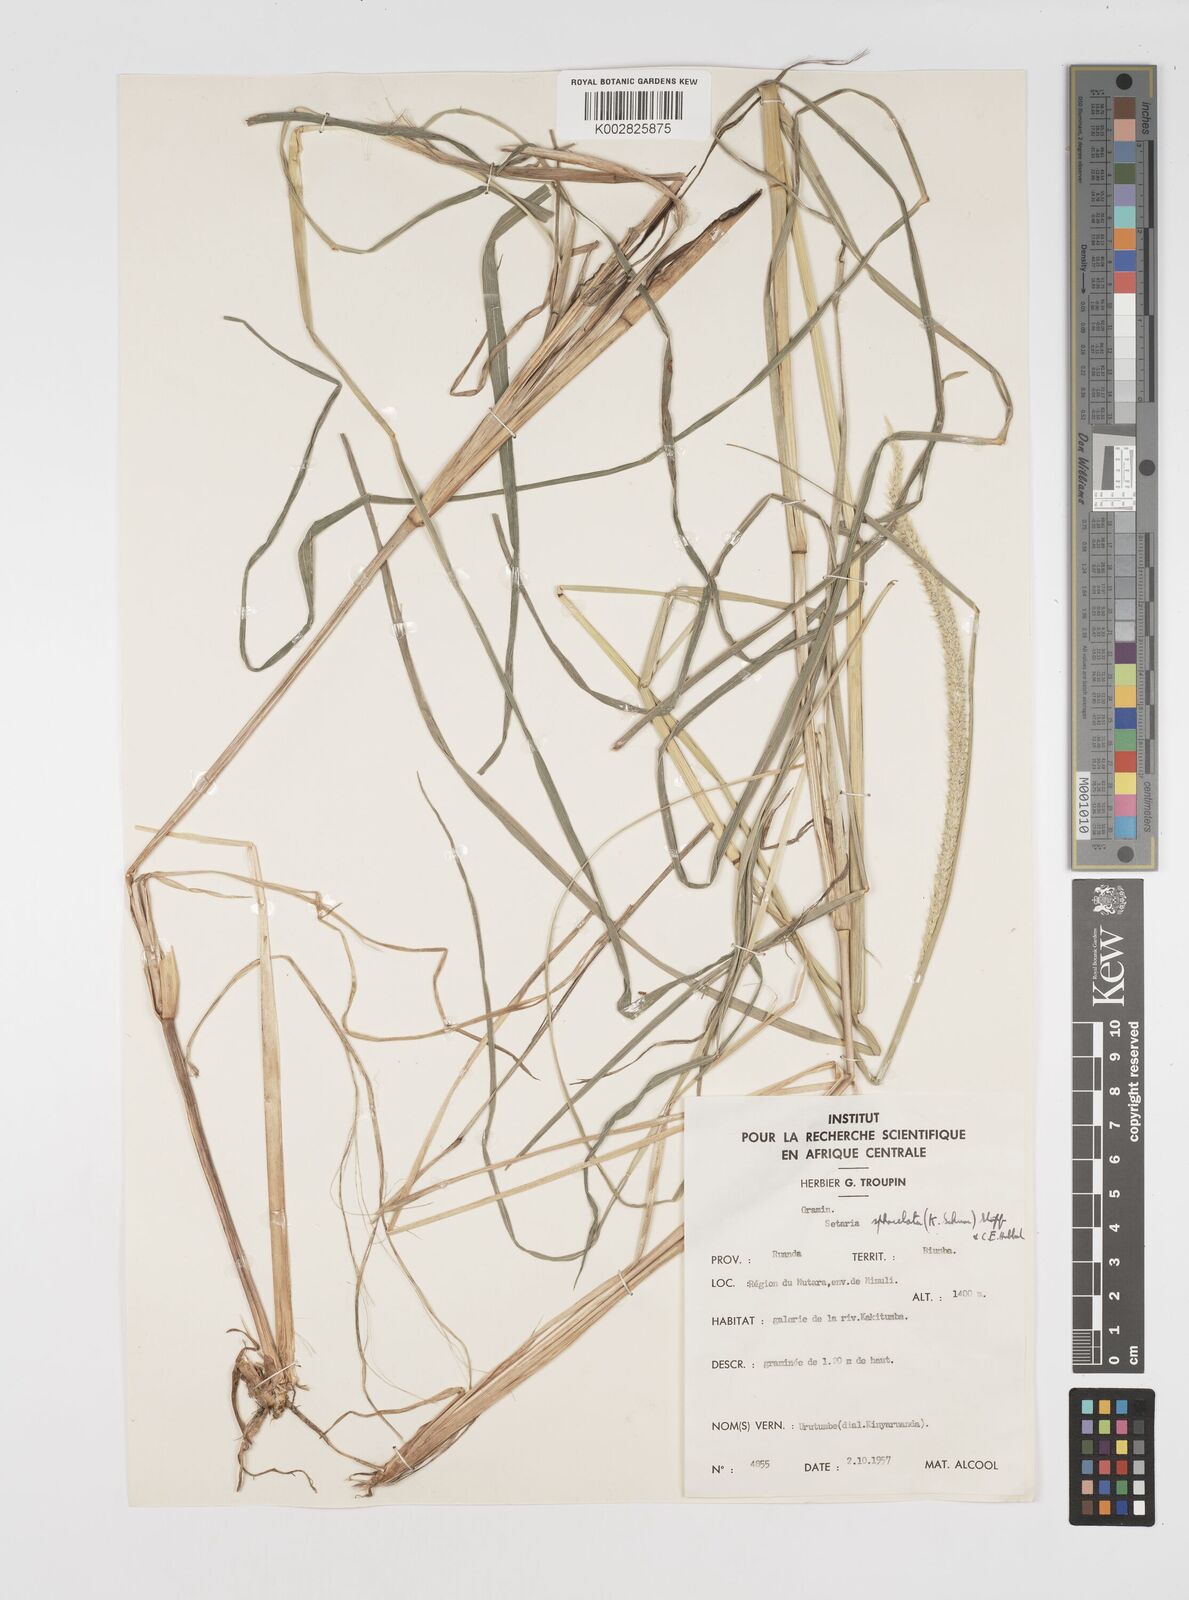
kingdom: Plantae
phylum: Tracheophyta
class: Liliopsida
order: Poales
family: Poaceae
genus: Setaria
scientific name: Setaria sphacelata
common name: African bristlegrass
